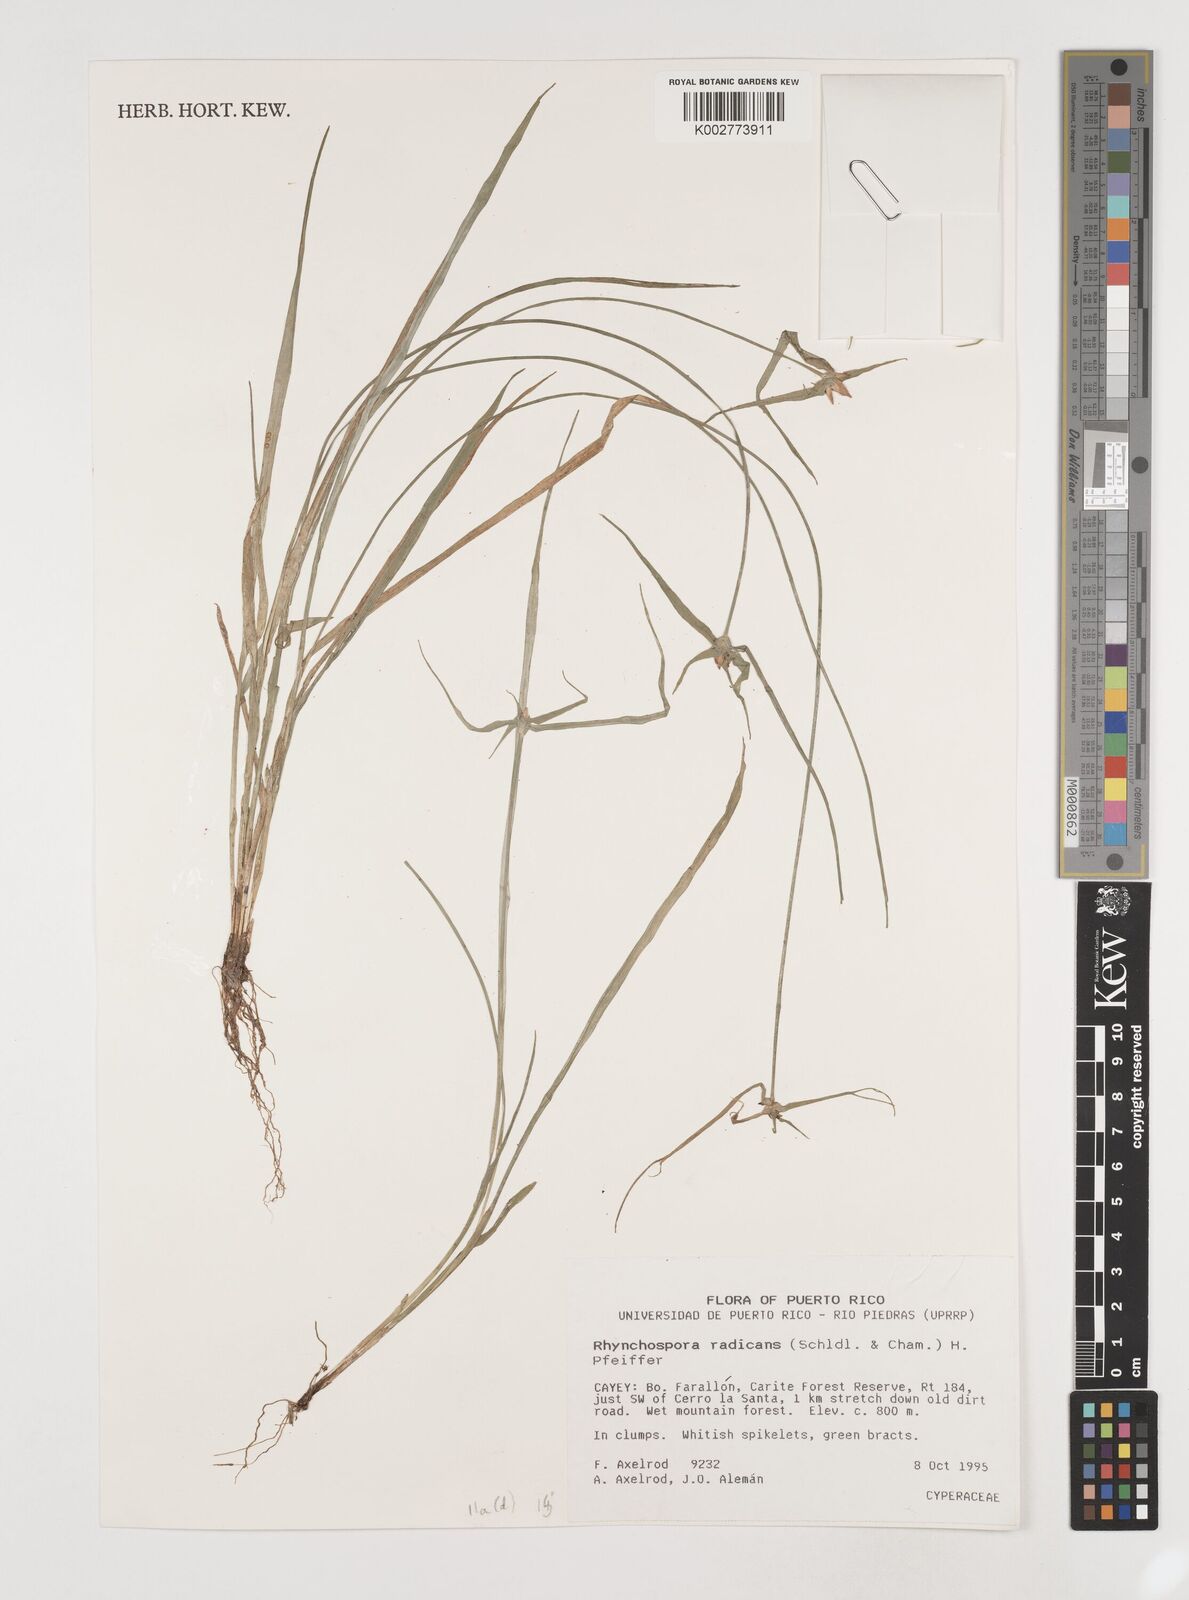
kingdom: Plantae
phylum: Tracheophyta
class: Liliopsida
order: Poales
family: Cyperaceae
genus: Rhynchospora
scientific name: Rhynchospora radicans
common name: Tropical whitetop
